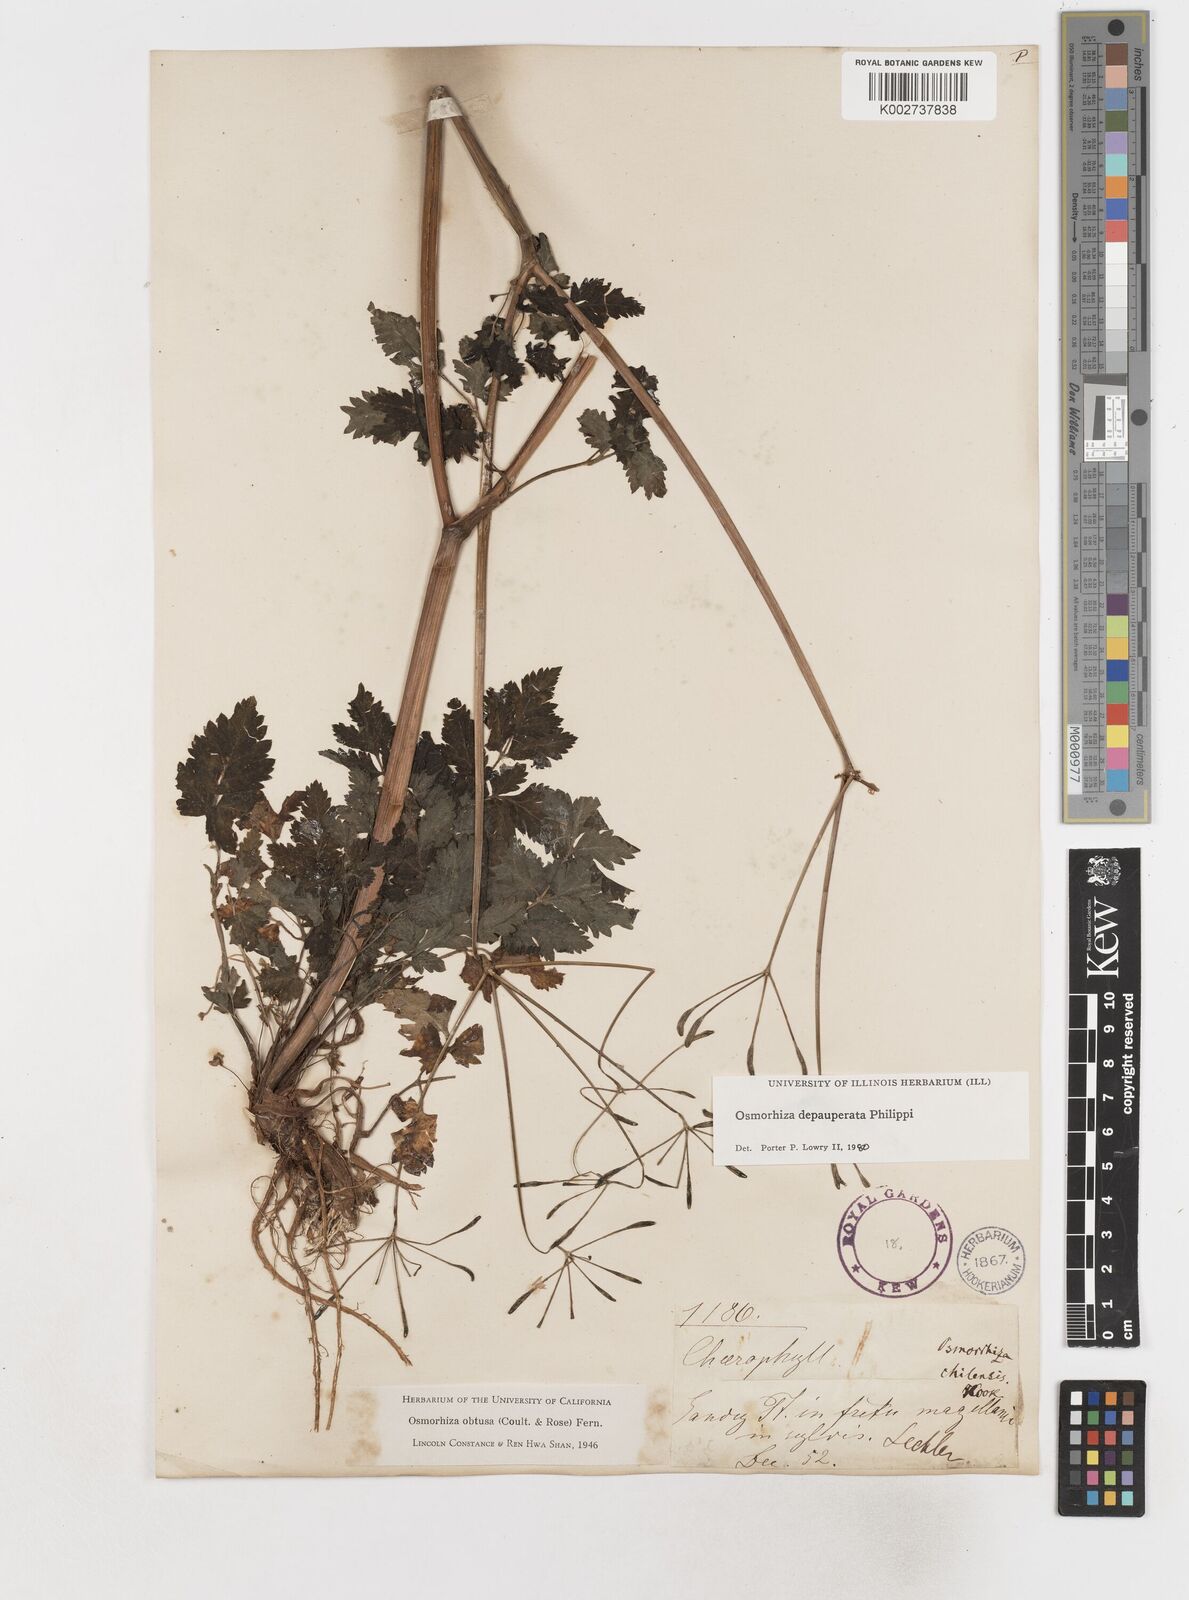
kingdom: Plantae
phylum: Tracheophyta
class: Magnoliopsida
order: Apiales
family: Apiaceae
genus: Osmorhiza
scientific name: Osmorhiza depauperata
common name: Blunt sweet cicely
